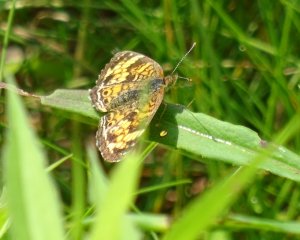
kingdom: Animalia
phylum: Arthropoda
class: Insecta
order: Lepidoptera
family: Nymphalidae
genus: Phyciodes
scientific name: Phyciodes tharos
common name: Northern Crescent
